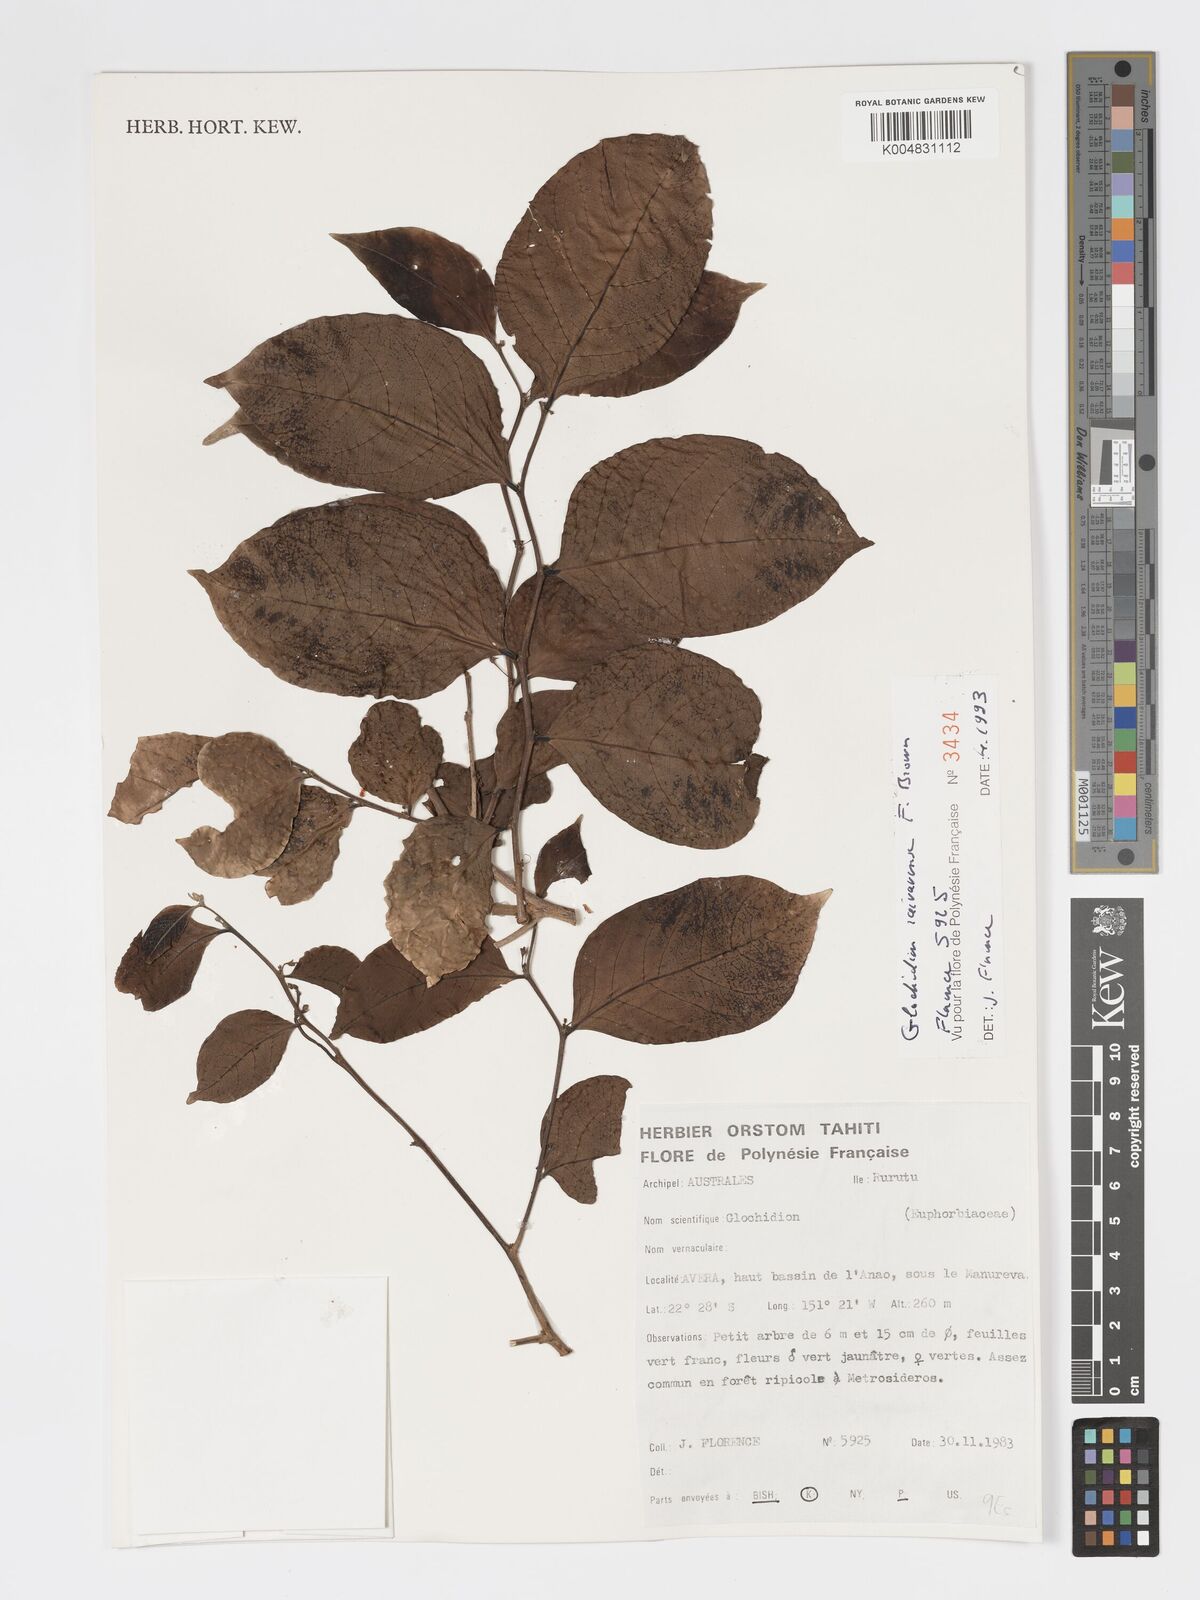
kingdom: Plantae
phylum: Tracheophyta
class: Magnoliopsida
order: Malpighiales
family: Phyllanthaceae
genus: Glochidion
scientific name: Glochidion raivavense
